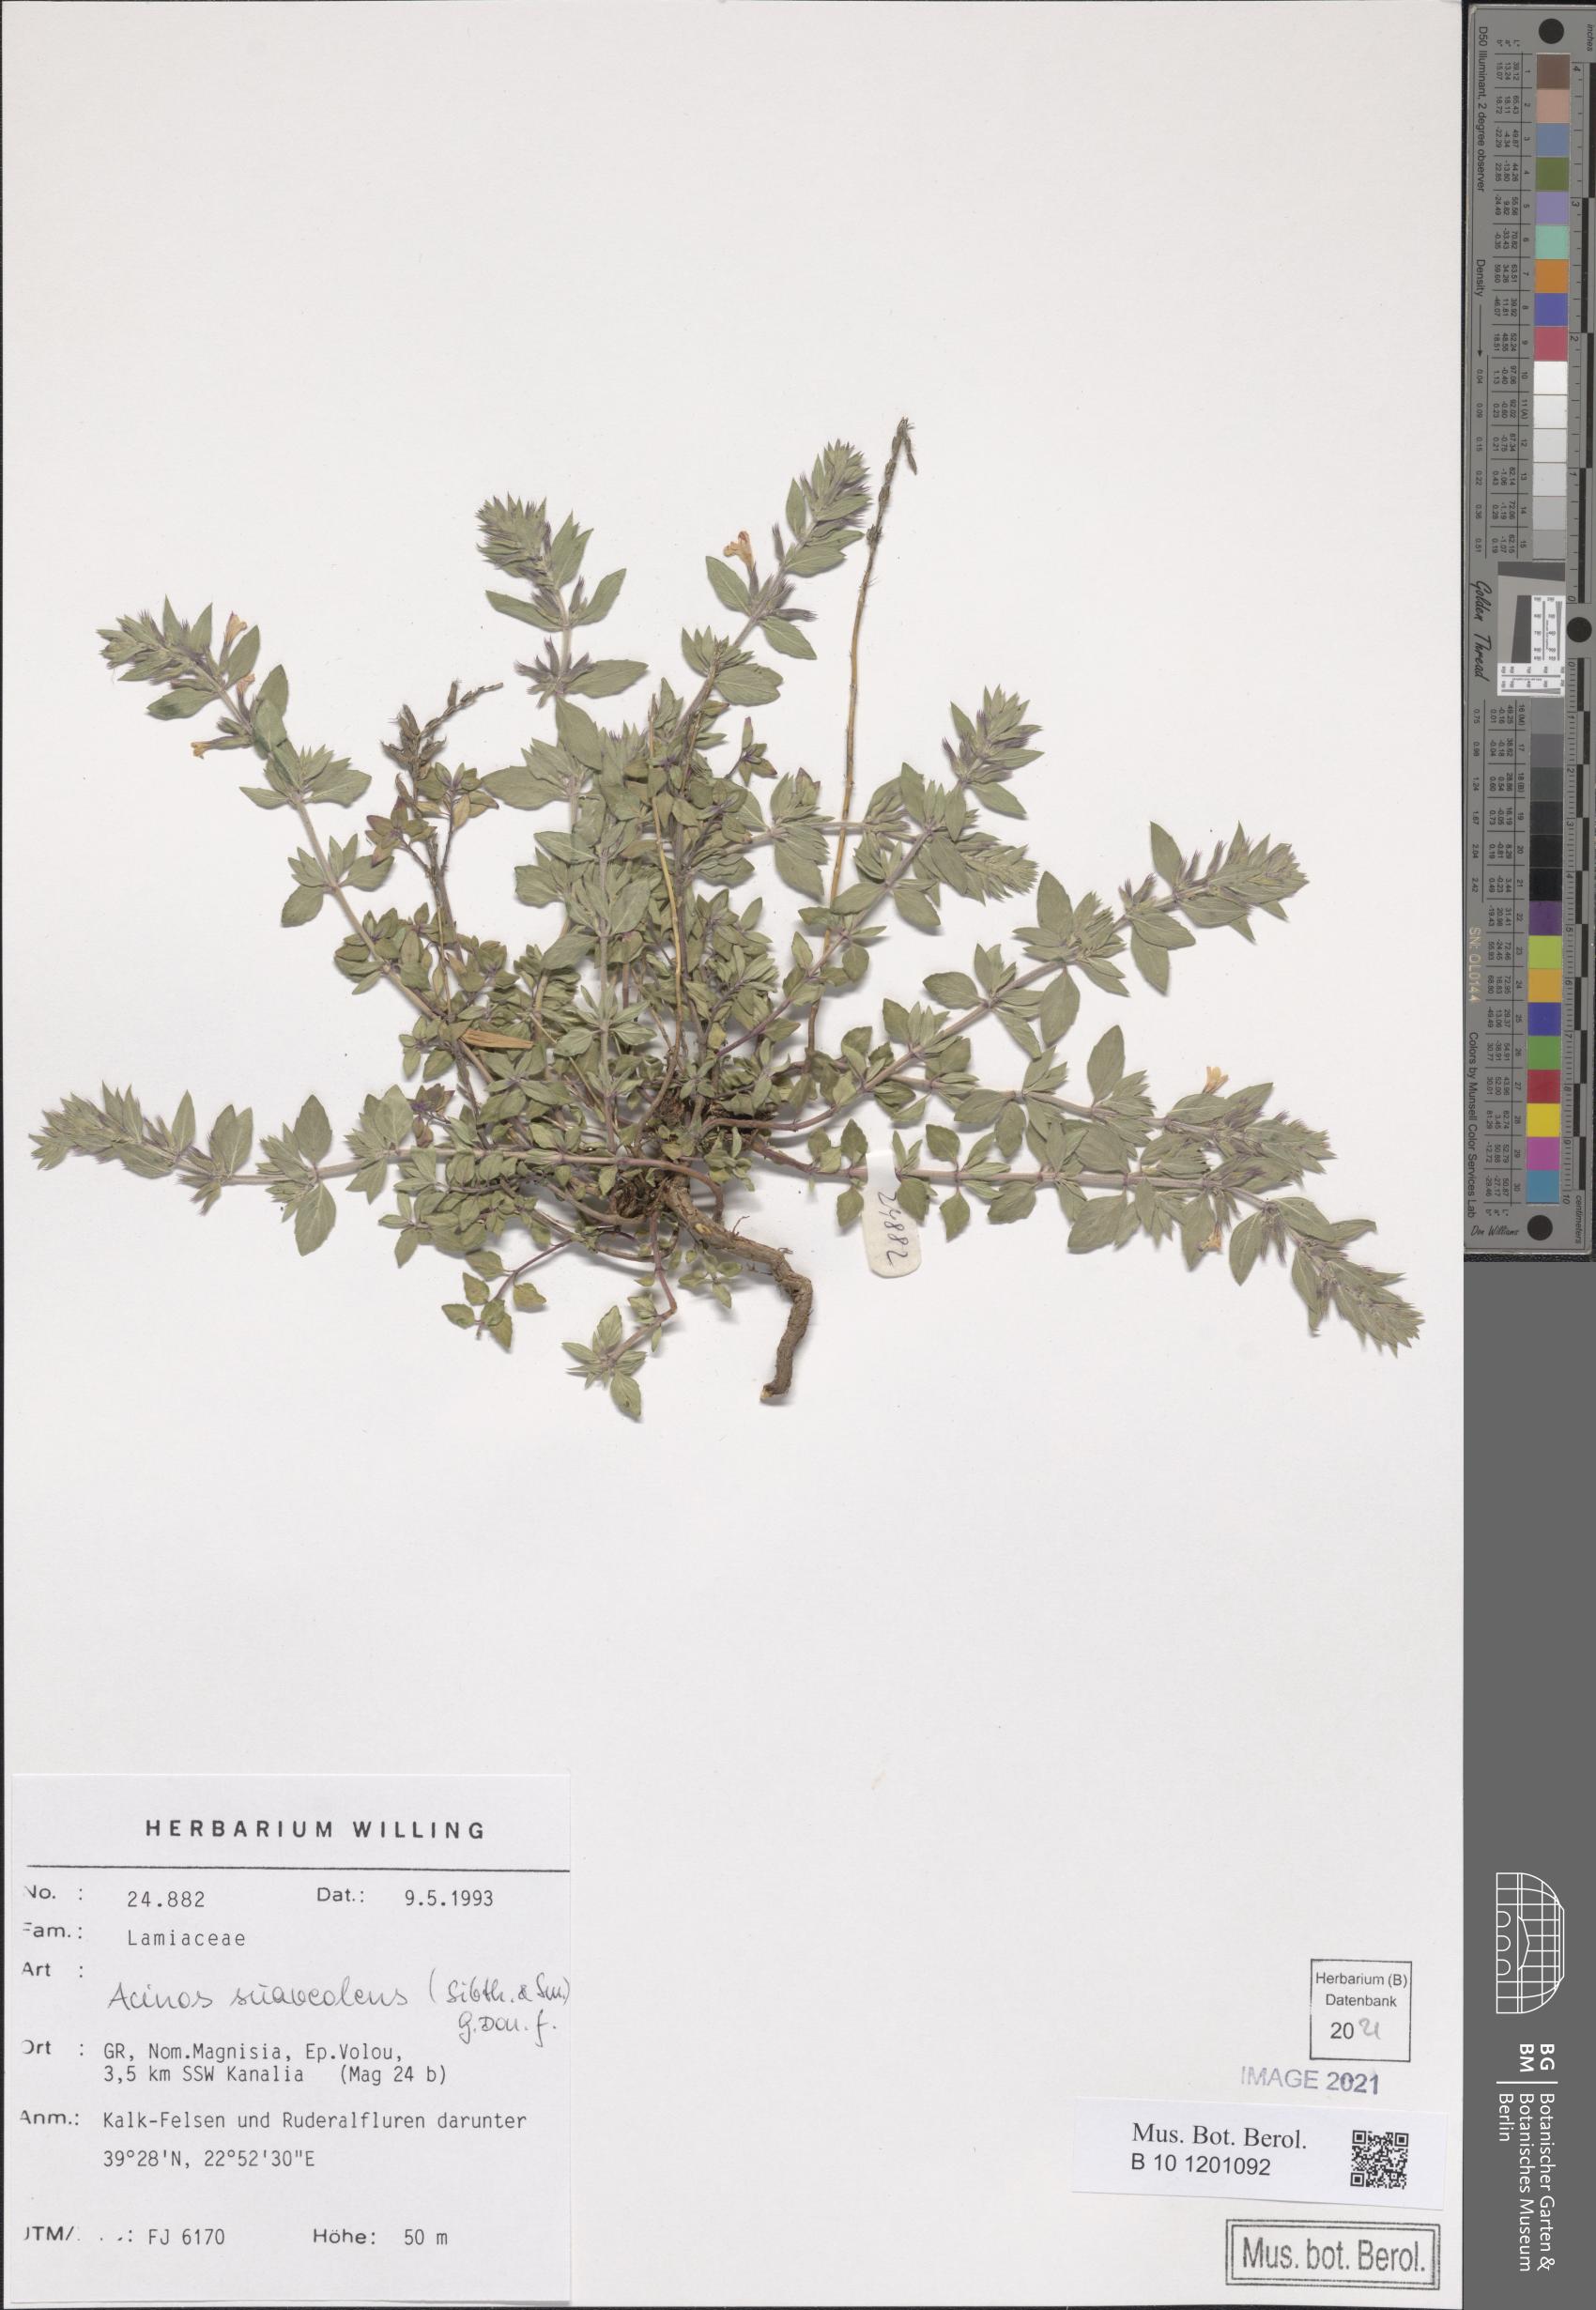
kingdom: Plantae
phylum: Tracheophyta
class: Magnoliopsida
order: Lamiales
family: Lamiaceae
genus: Clinopodium
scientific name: Clinopodium suaveolens
